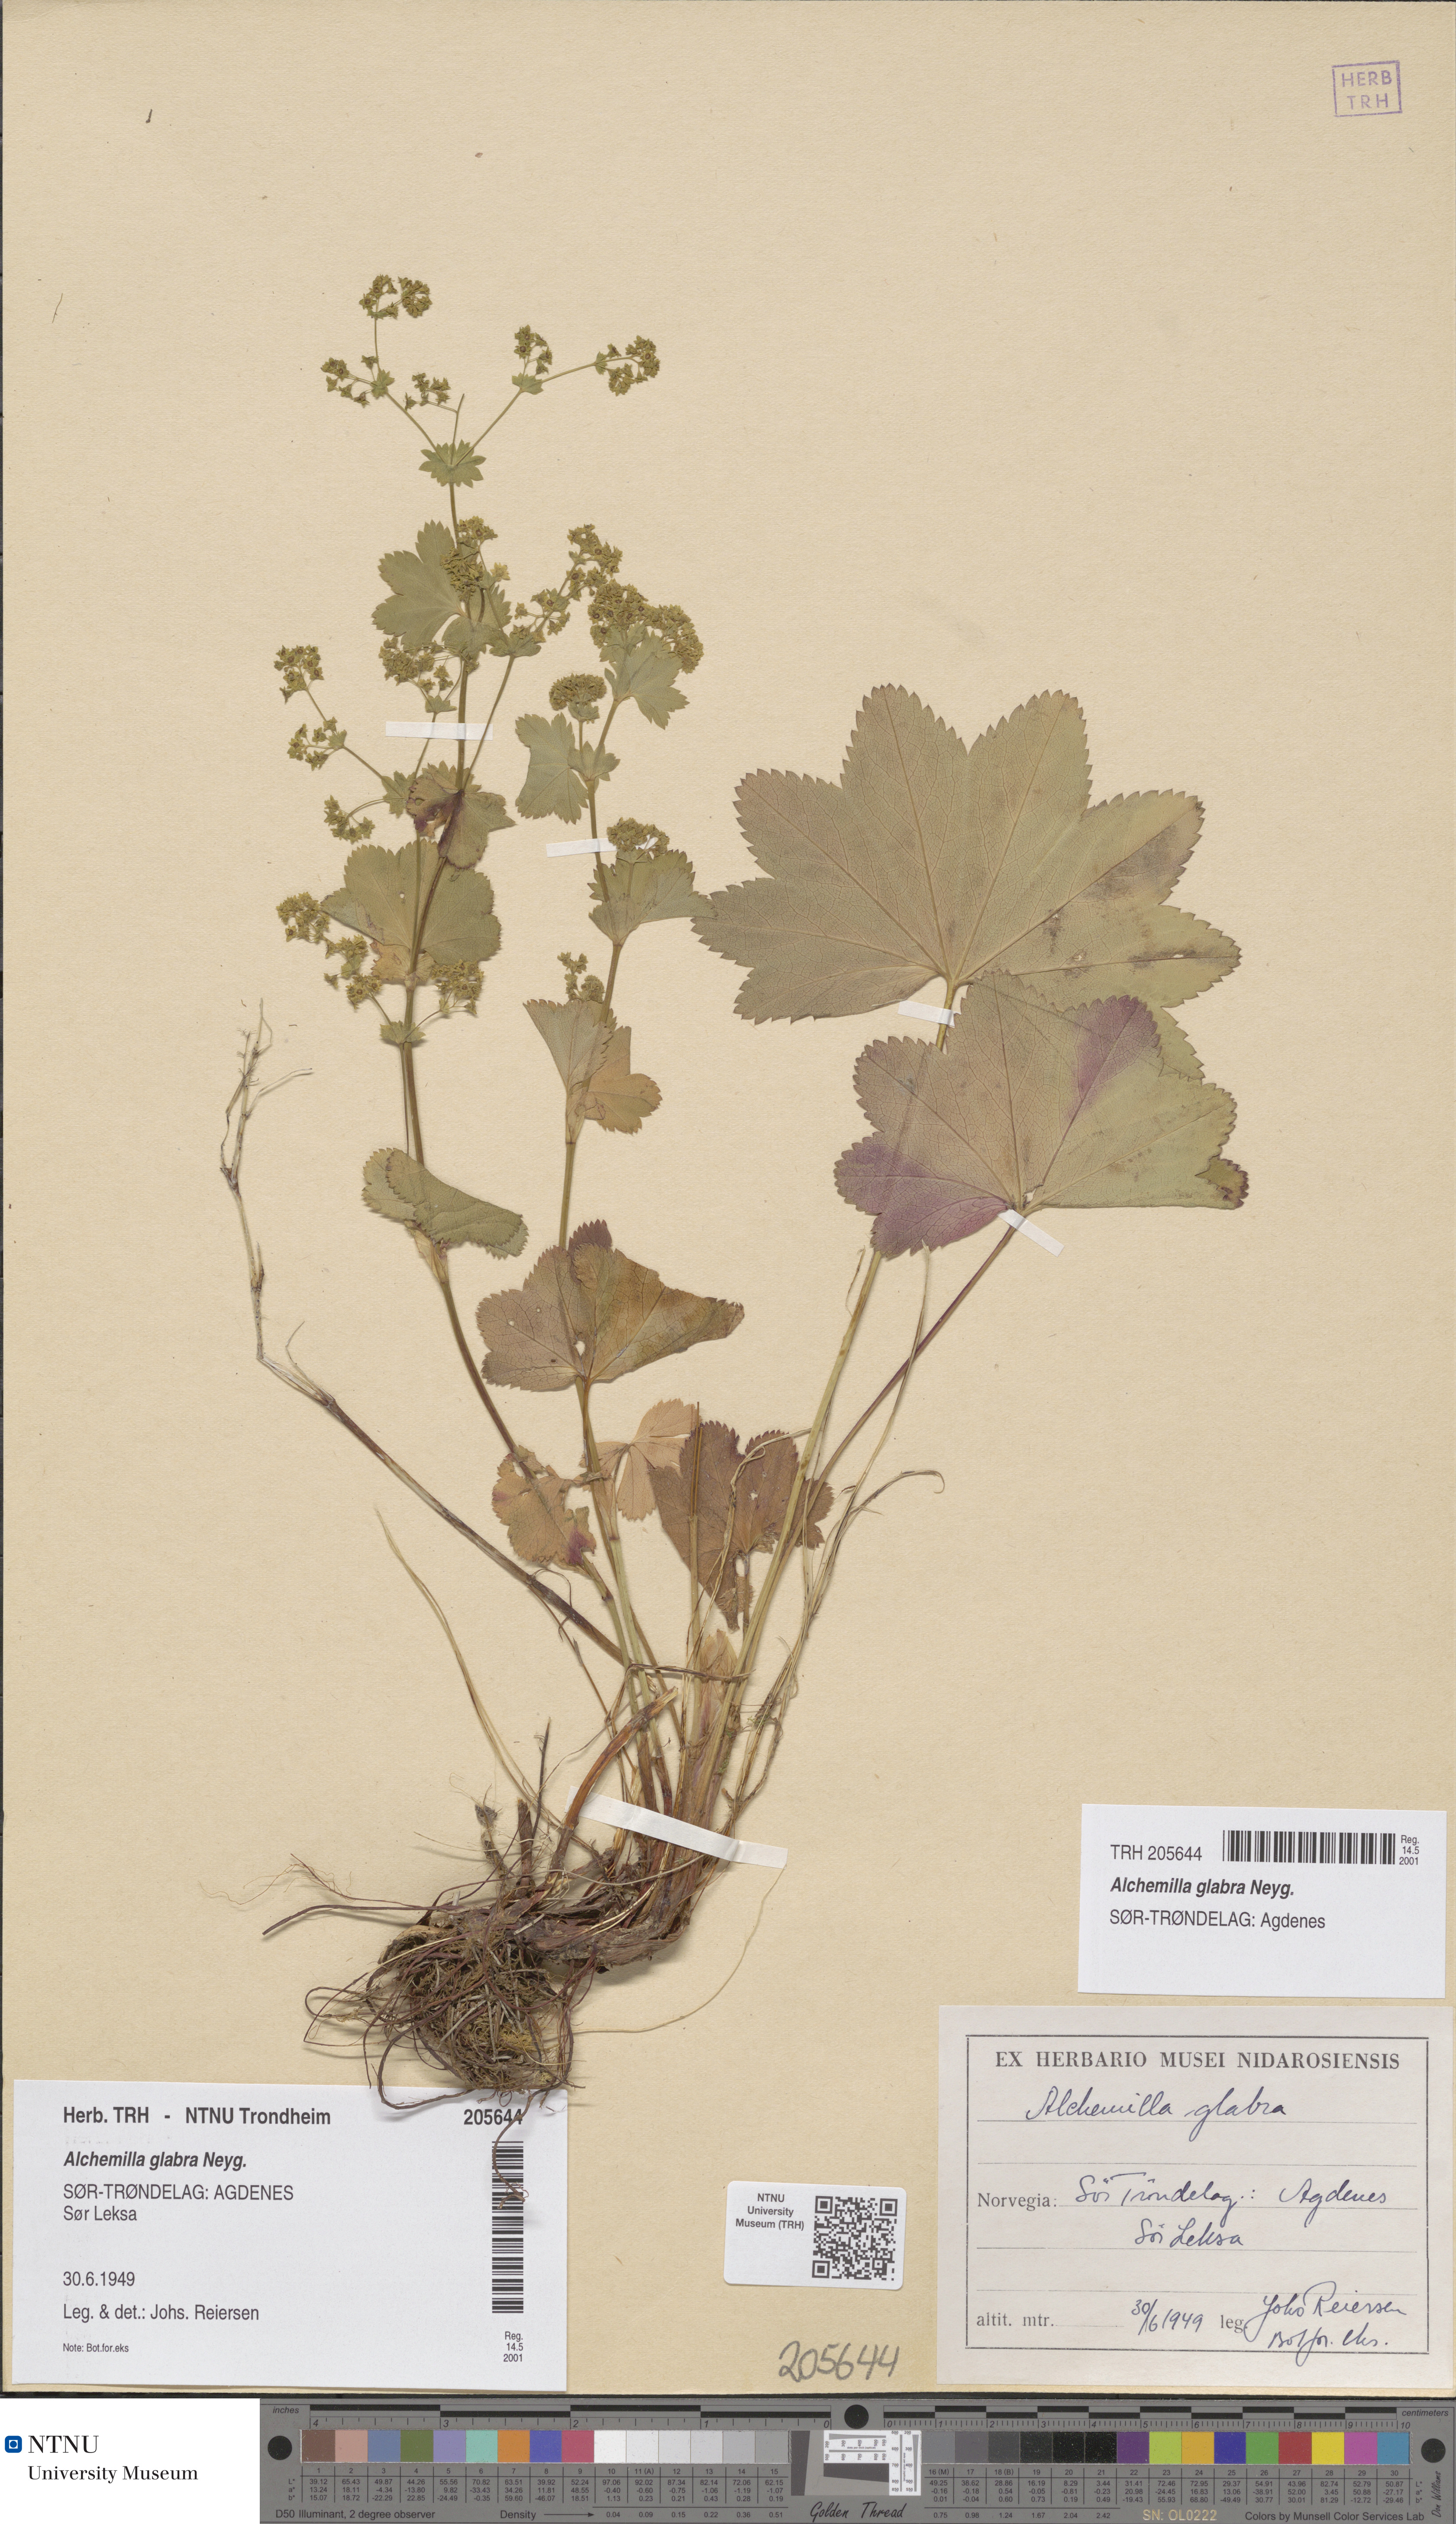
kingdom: Plantae
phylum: Tracheophyta
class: Magnoliopsida
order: Rosales
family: Rosaceae
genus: Alchemilla
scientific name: Alchemilla glabra
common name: Smooth lady's-mantle
